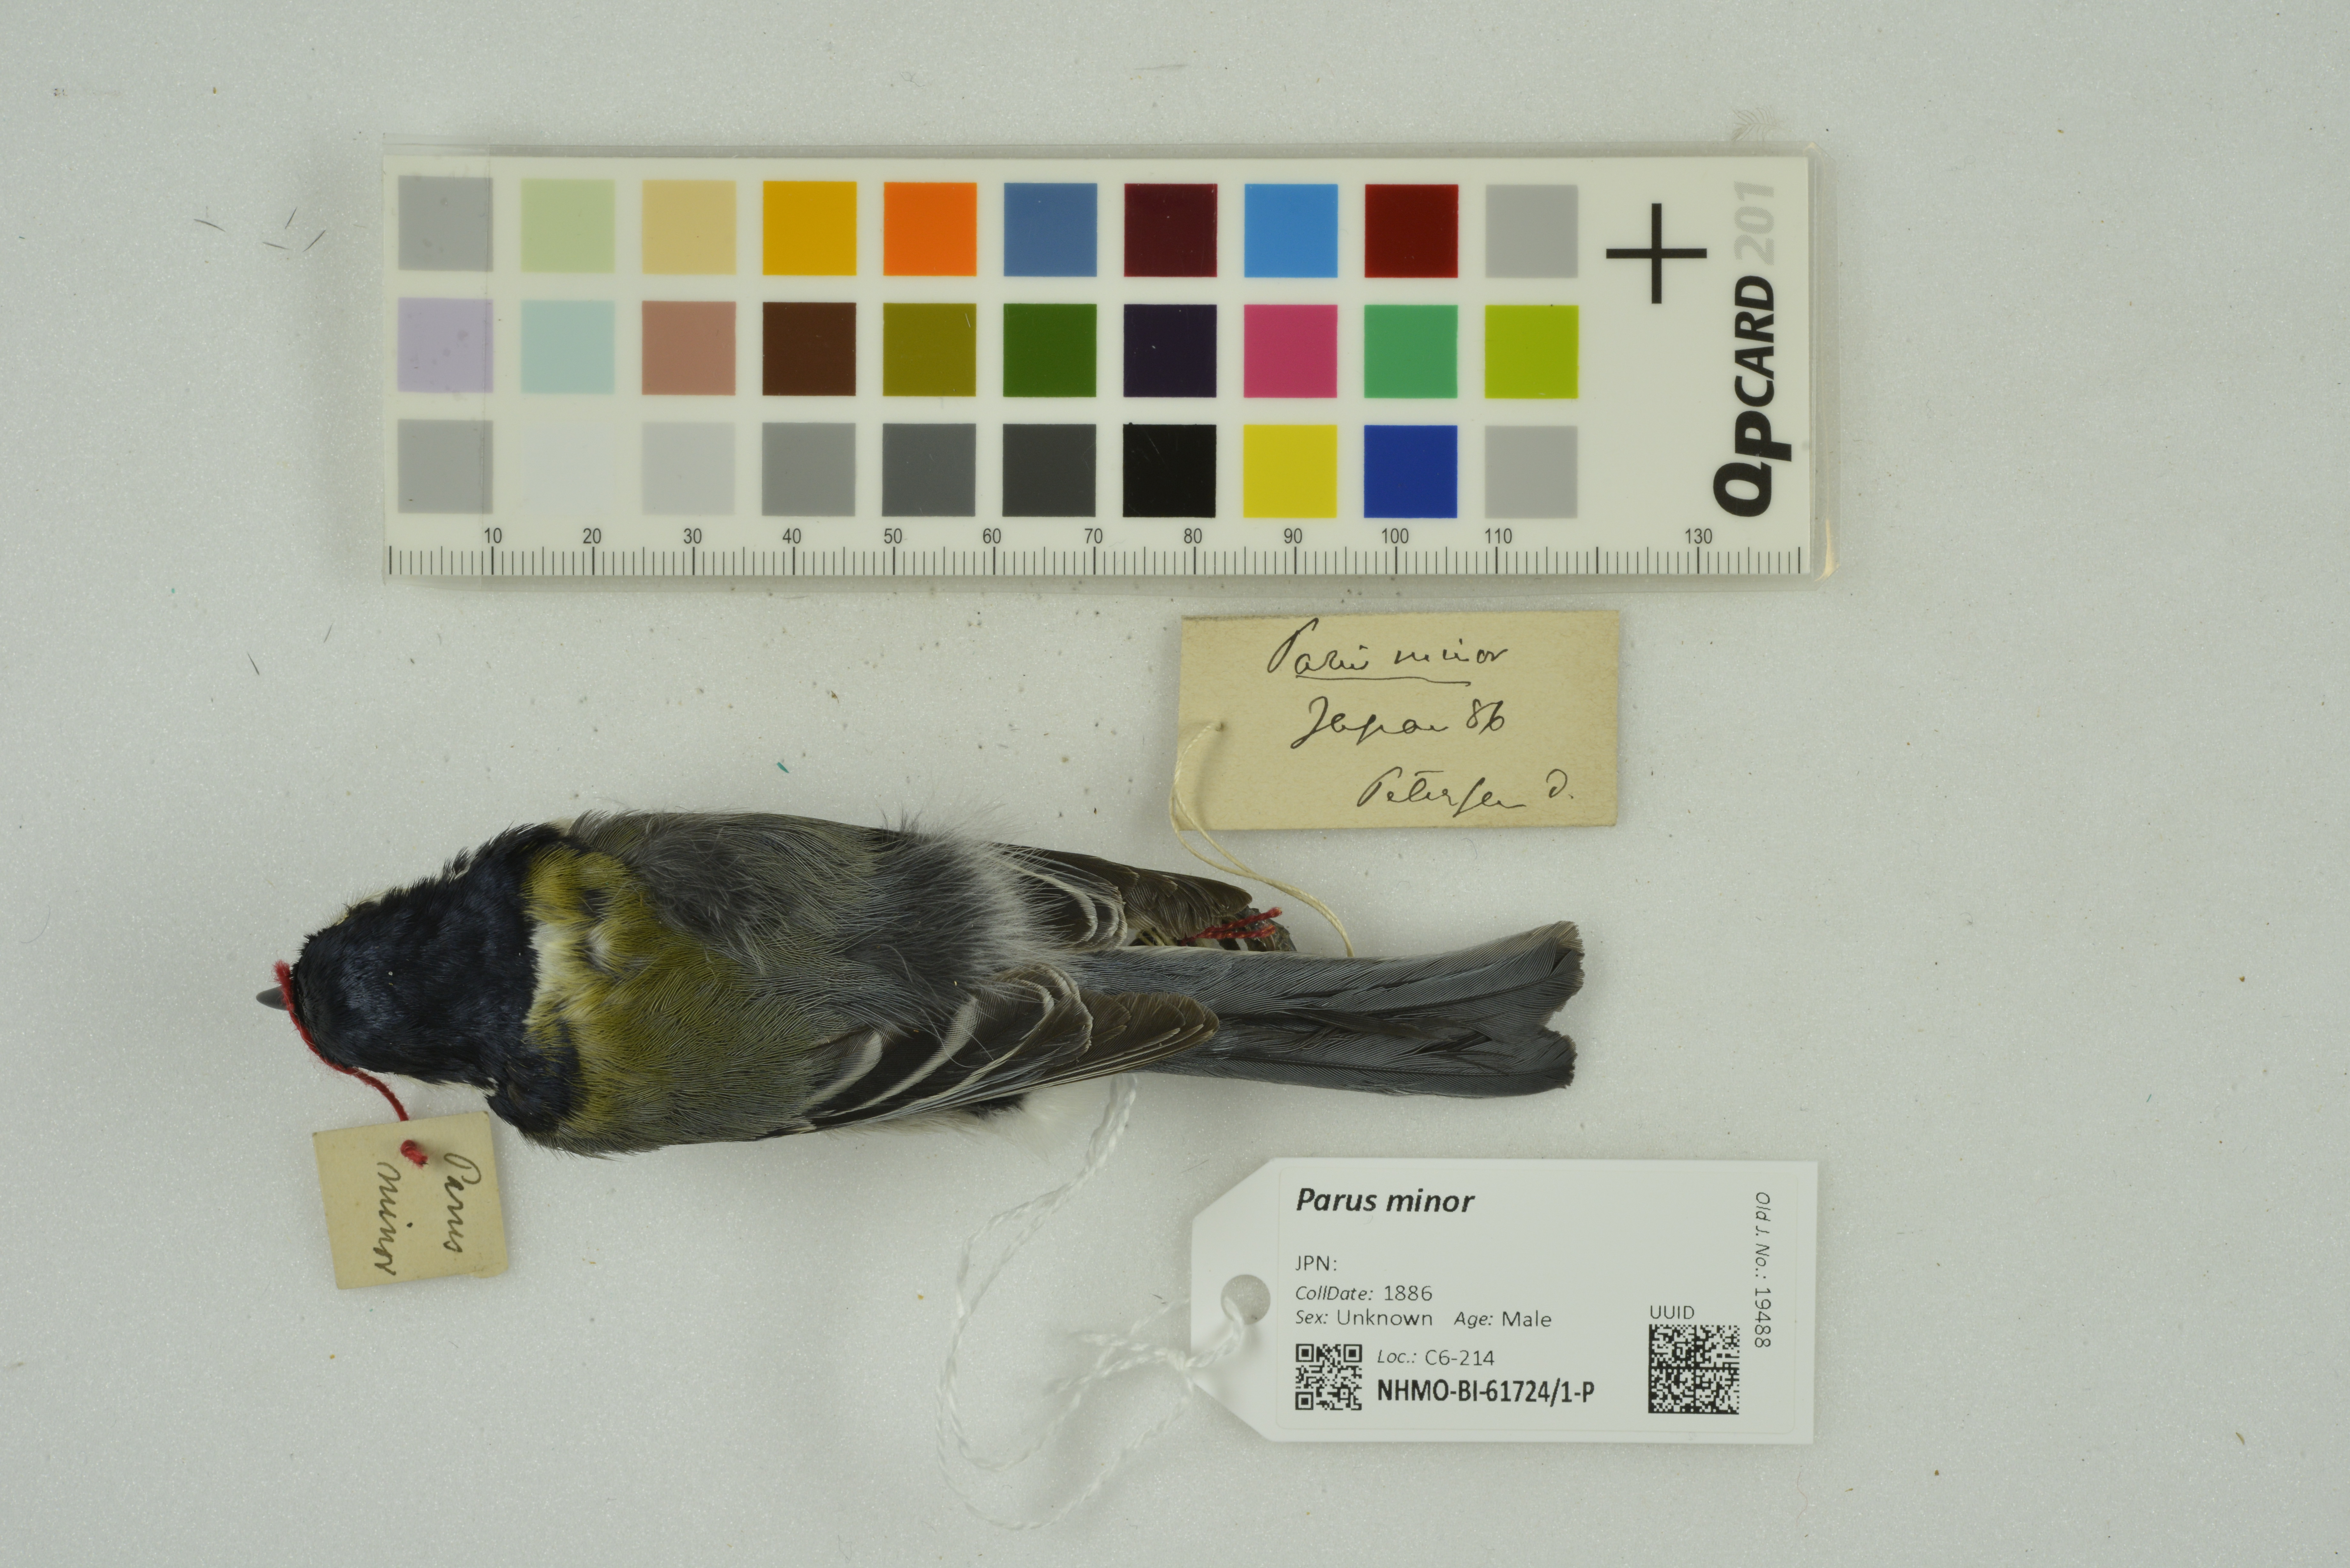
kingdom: Animalia
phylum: Chordata
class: Aves
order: Passeriformes
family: Paridae
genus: Parus
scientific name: Parus minor
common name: Japanese tit
